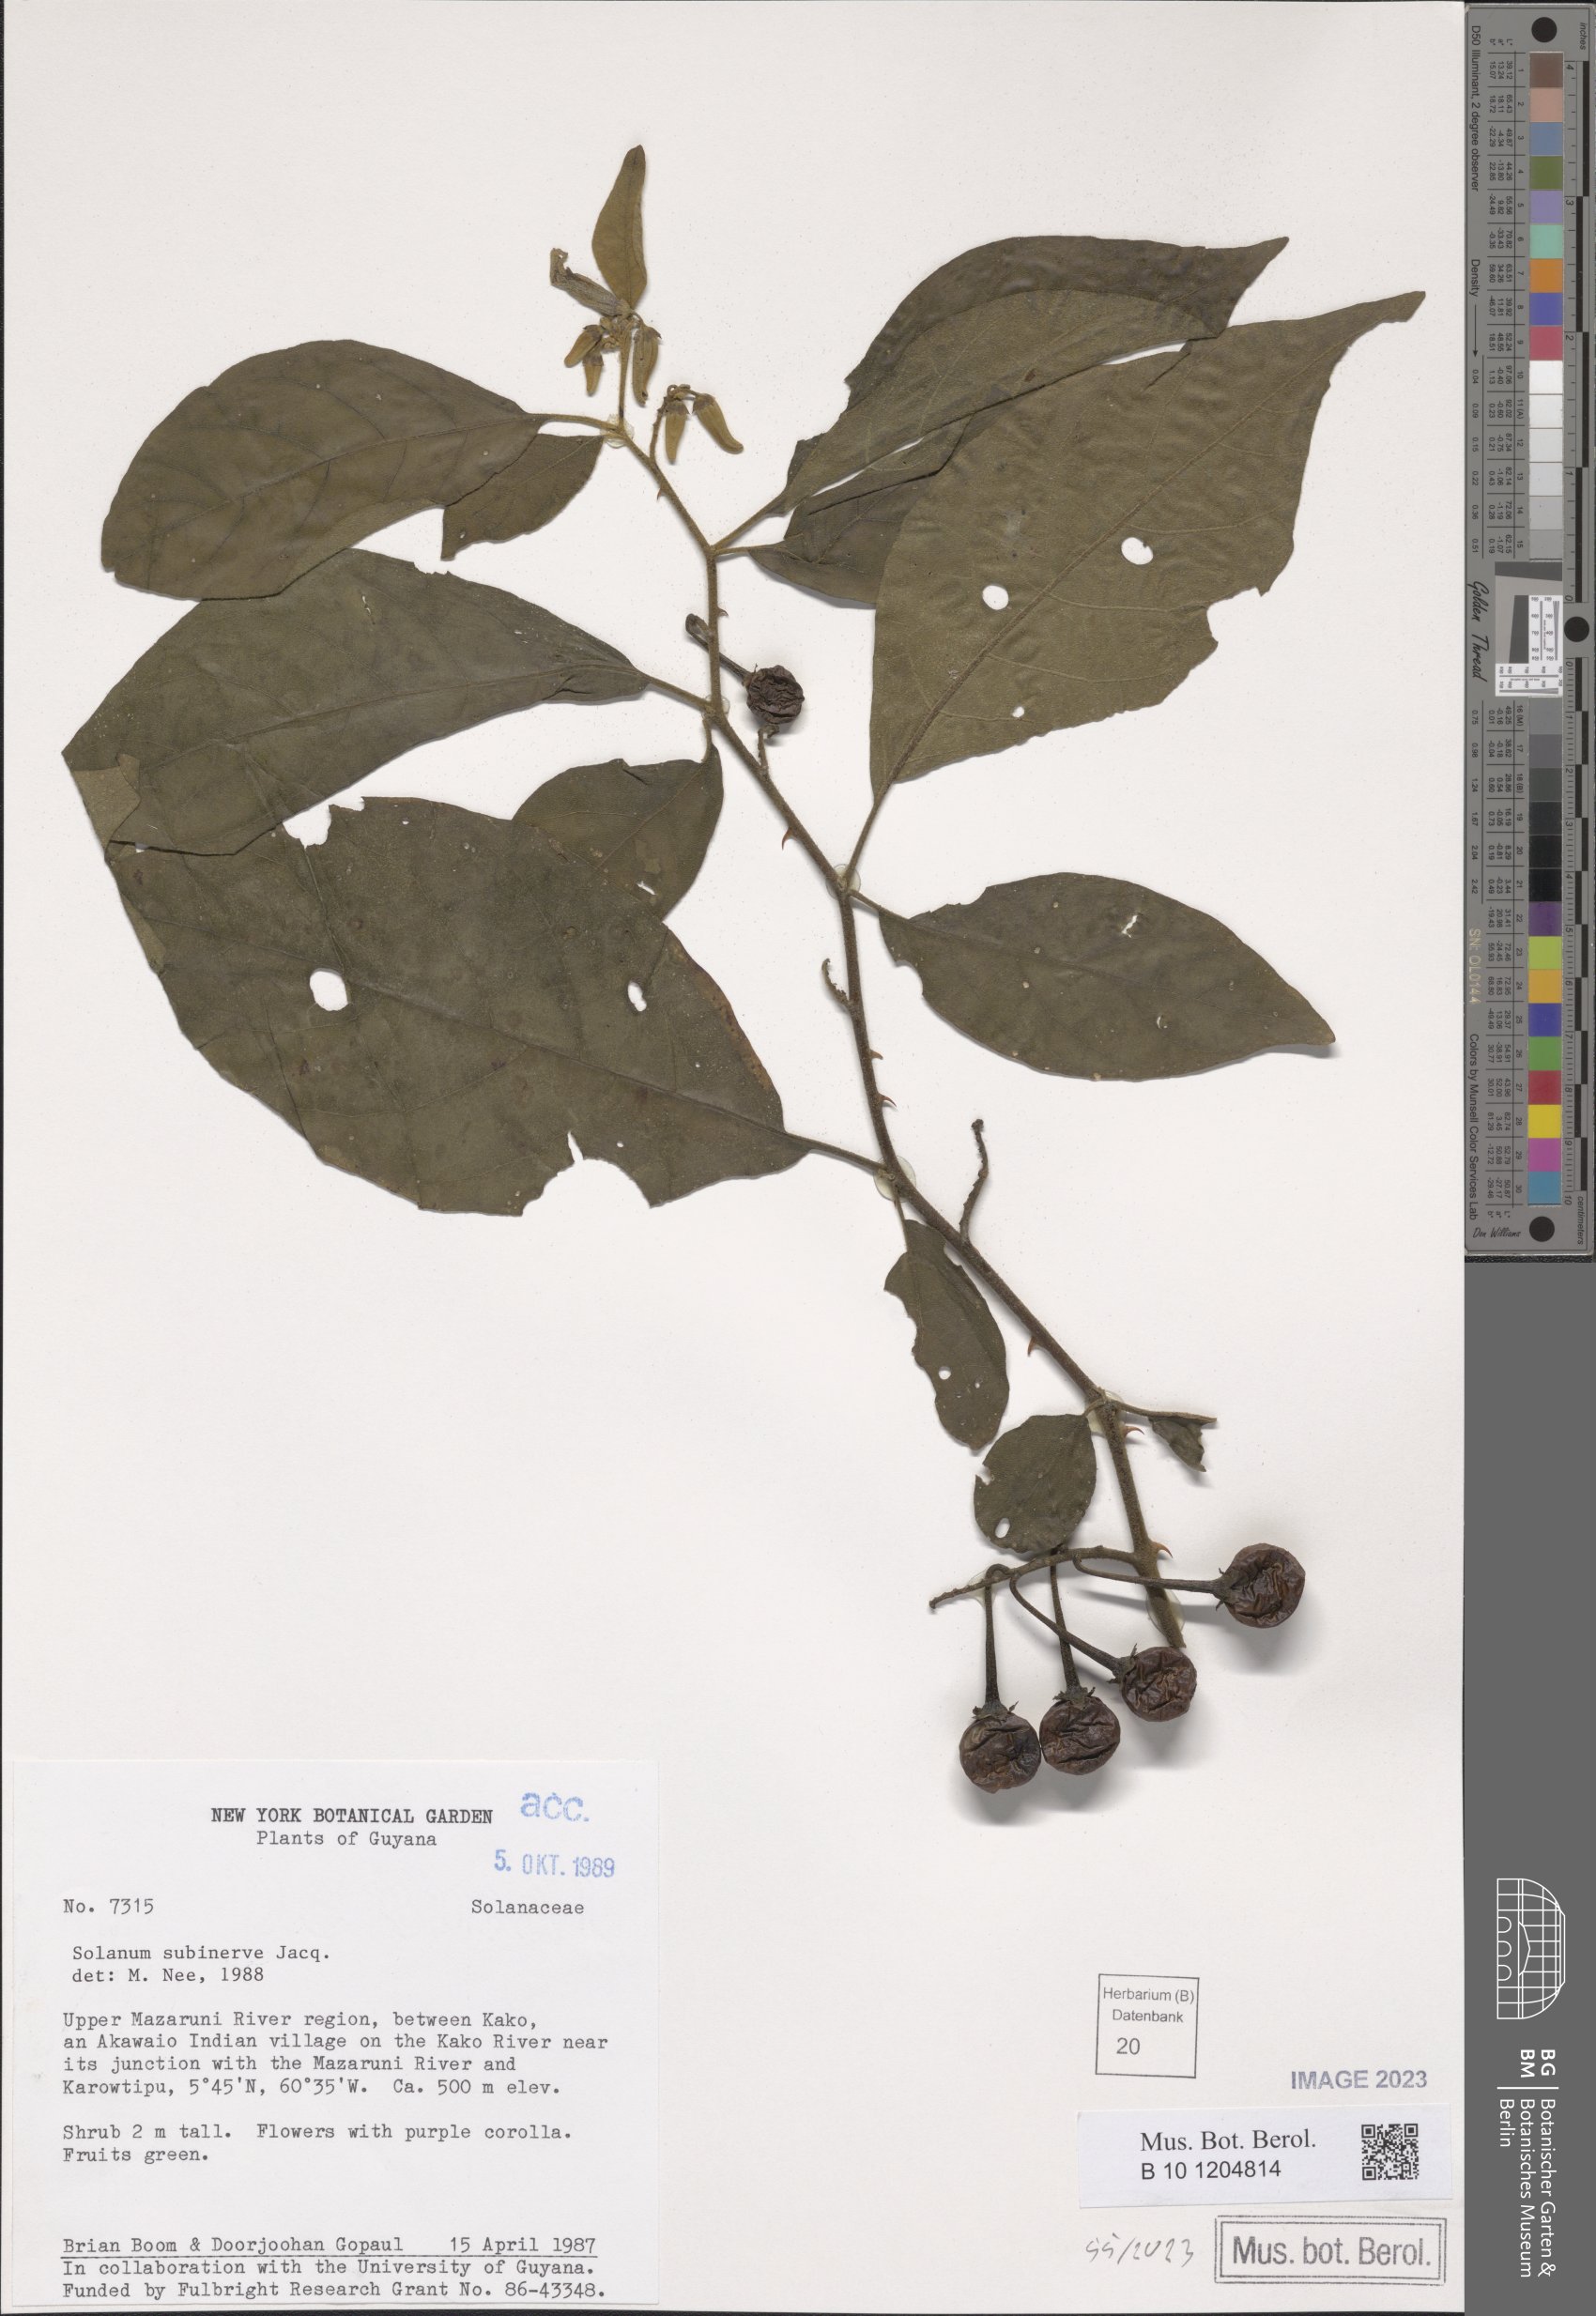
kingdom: Plantae
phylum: Tracheophyta
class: Magnoliopsida
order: Solanales
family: Solanaceae
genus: Solanum
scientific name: Solanum subinerme
